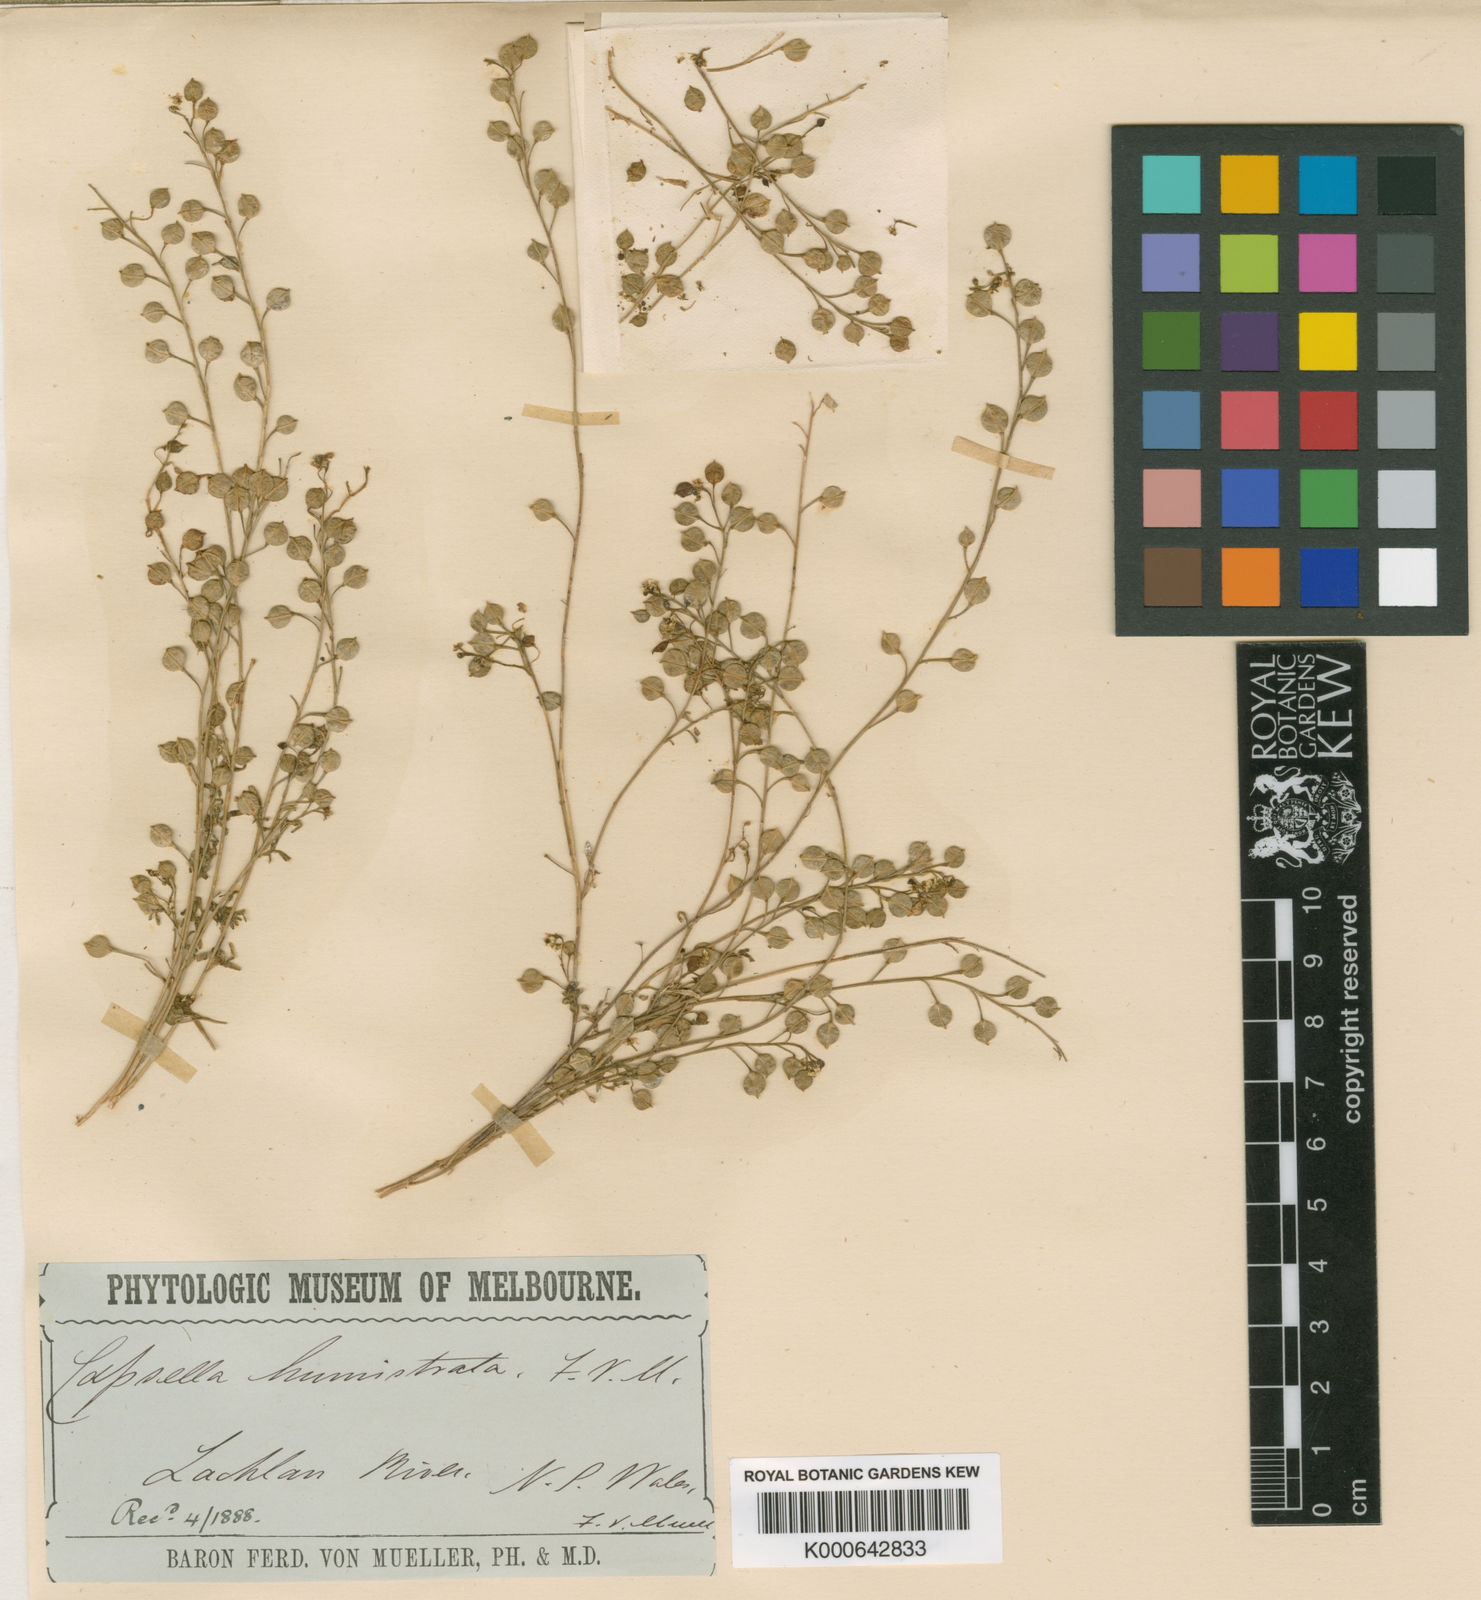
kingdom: Plantae
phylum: Tracheophyta
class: Magnoliopsida
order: Brassicales
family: Brassicaceae
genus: Cuphonotus
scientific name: Cuphonotus humistratus
